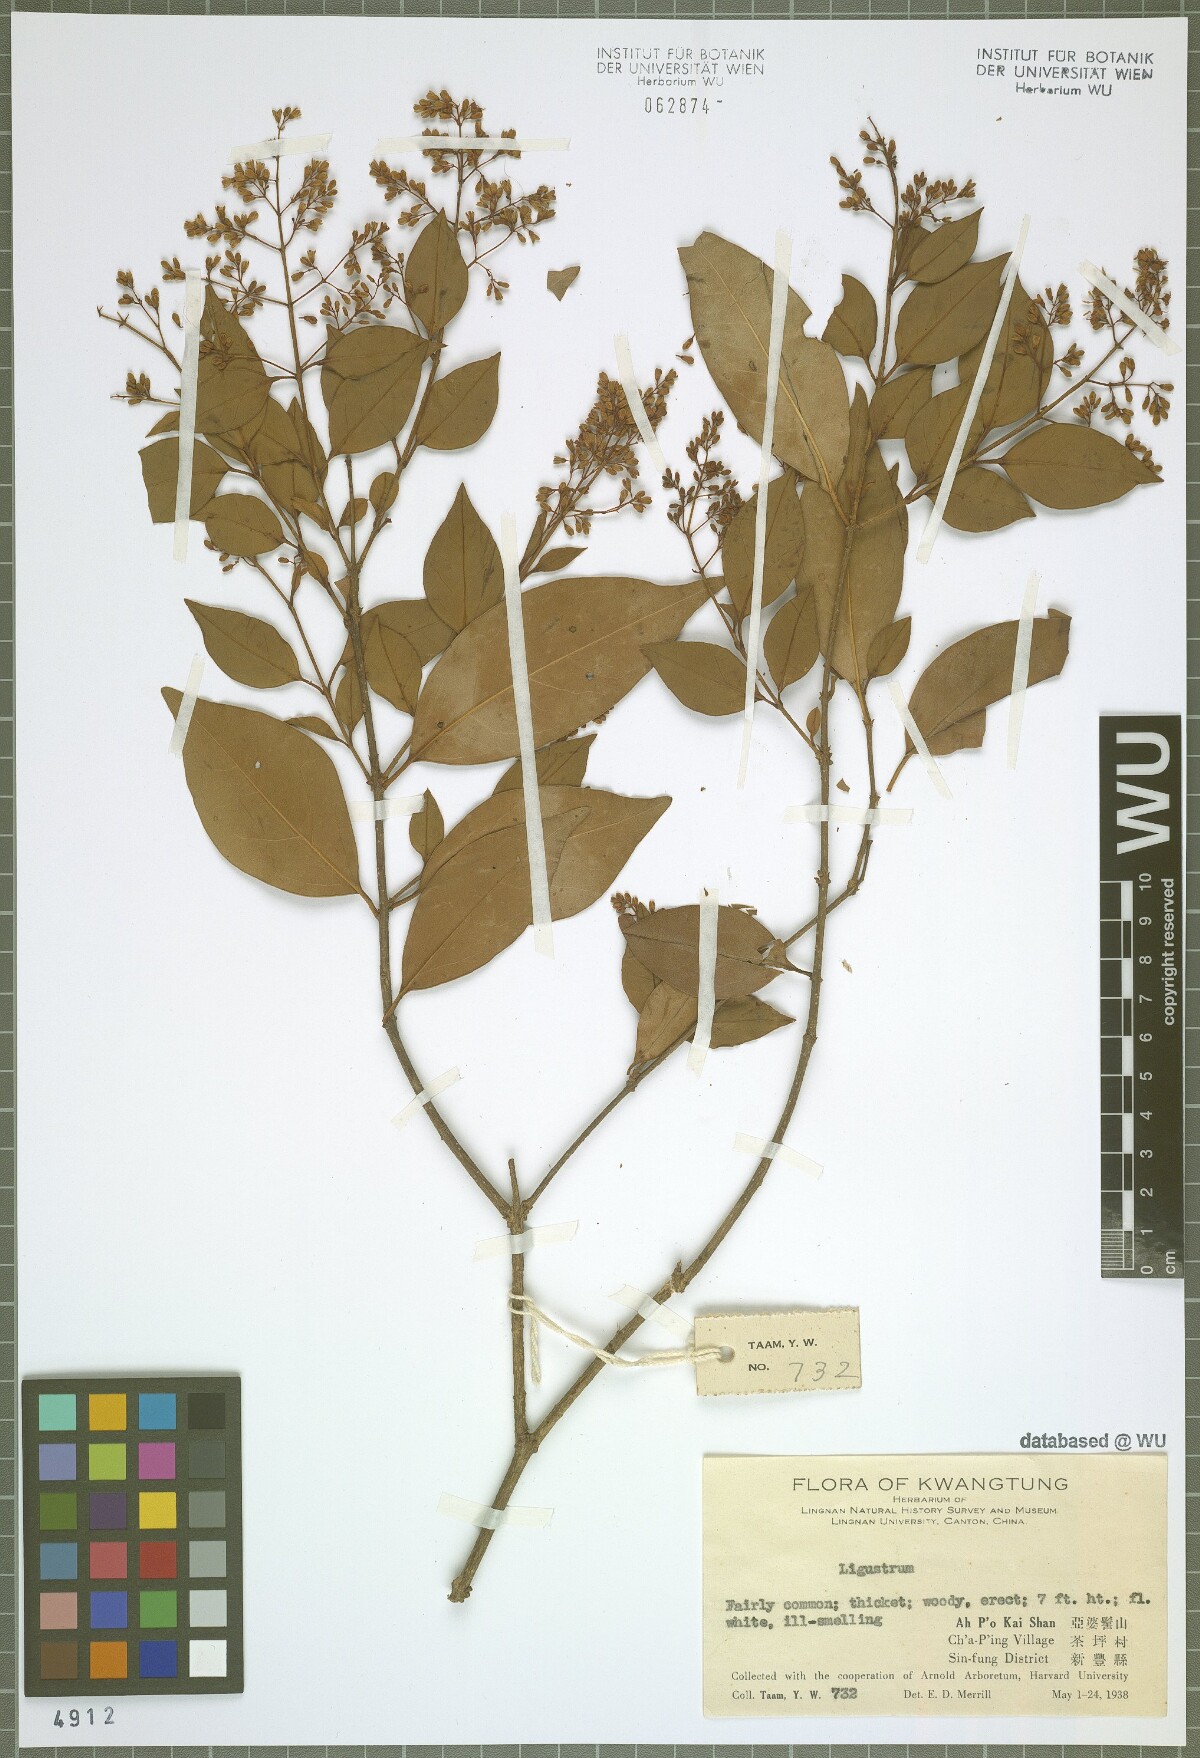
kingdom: Plantae
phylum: Tracheophyta
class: Magnoliopsida
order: Lamiales
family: Oleaceae
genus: Ligustrum
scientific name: Ligustrum
